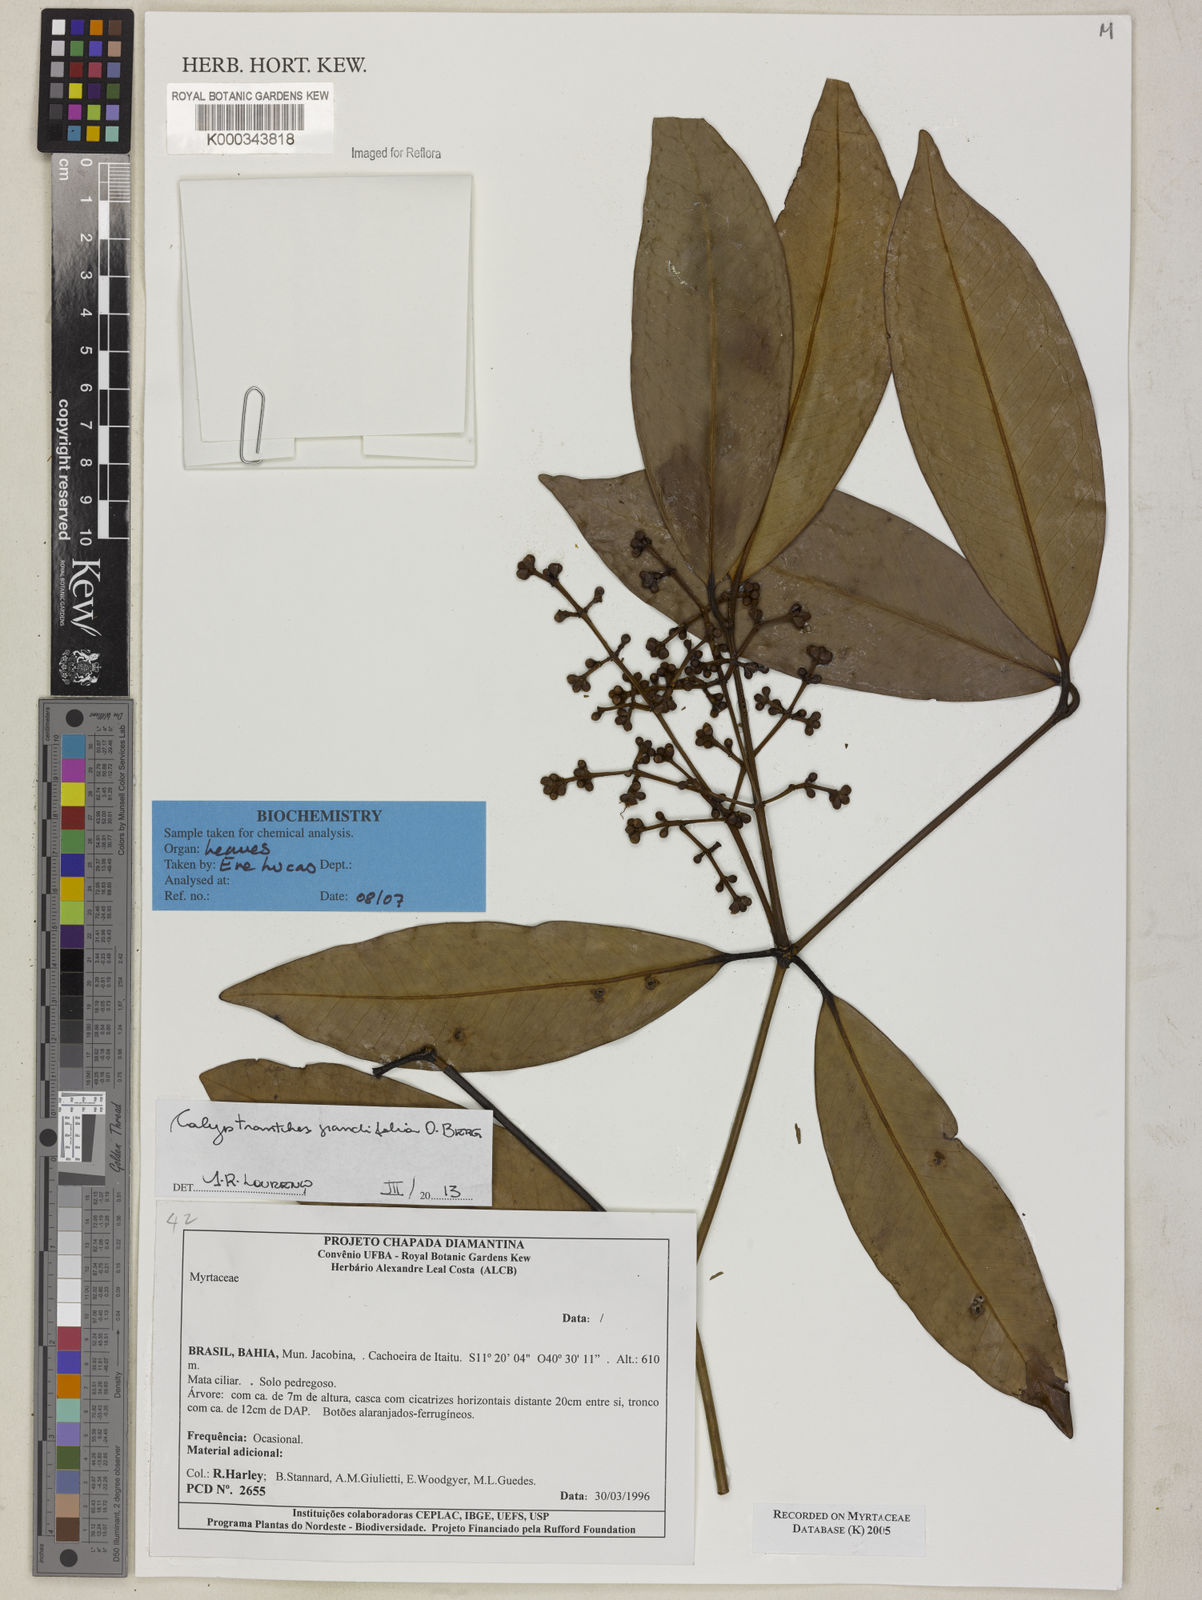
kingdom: Plantae
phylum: Tracheophyta
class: Magnoliopsida
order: Myrtales
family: Myrtaceae
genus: Myrcia
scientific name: Myrcia insigniflora
